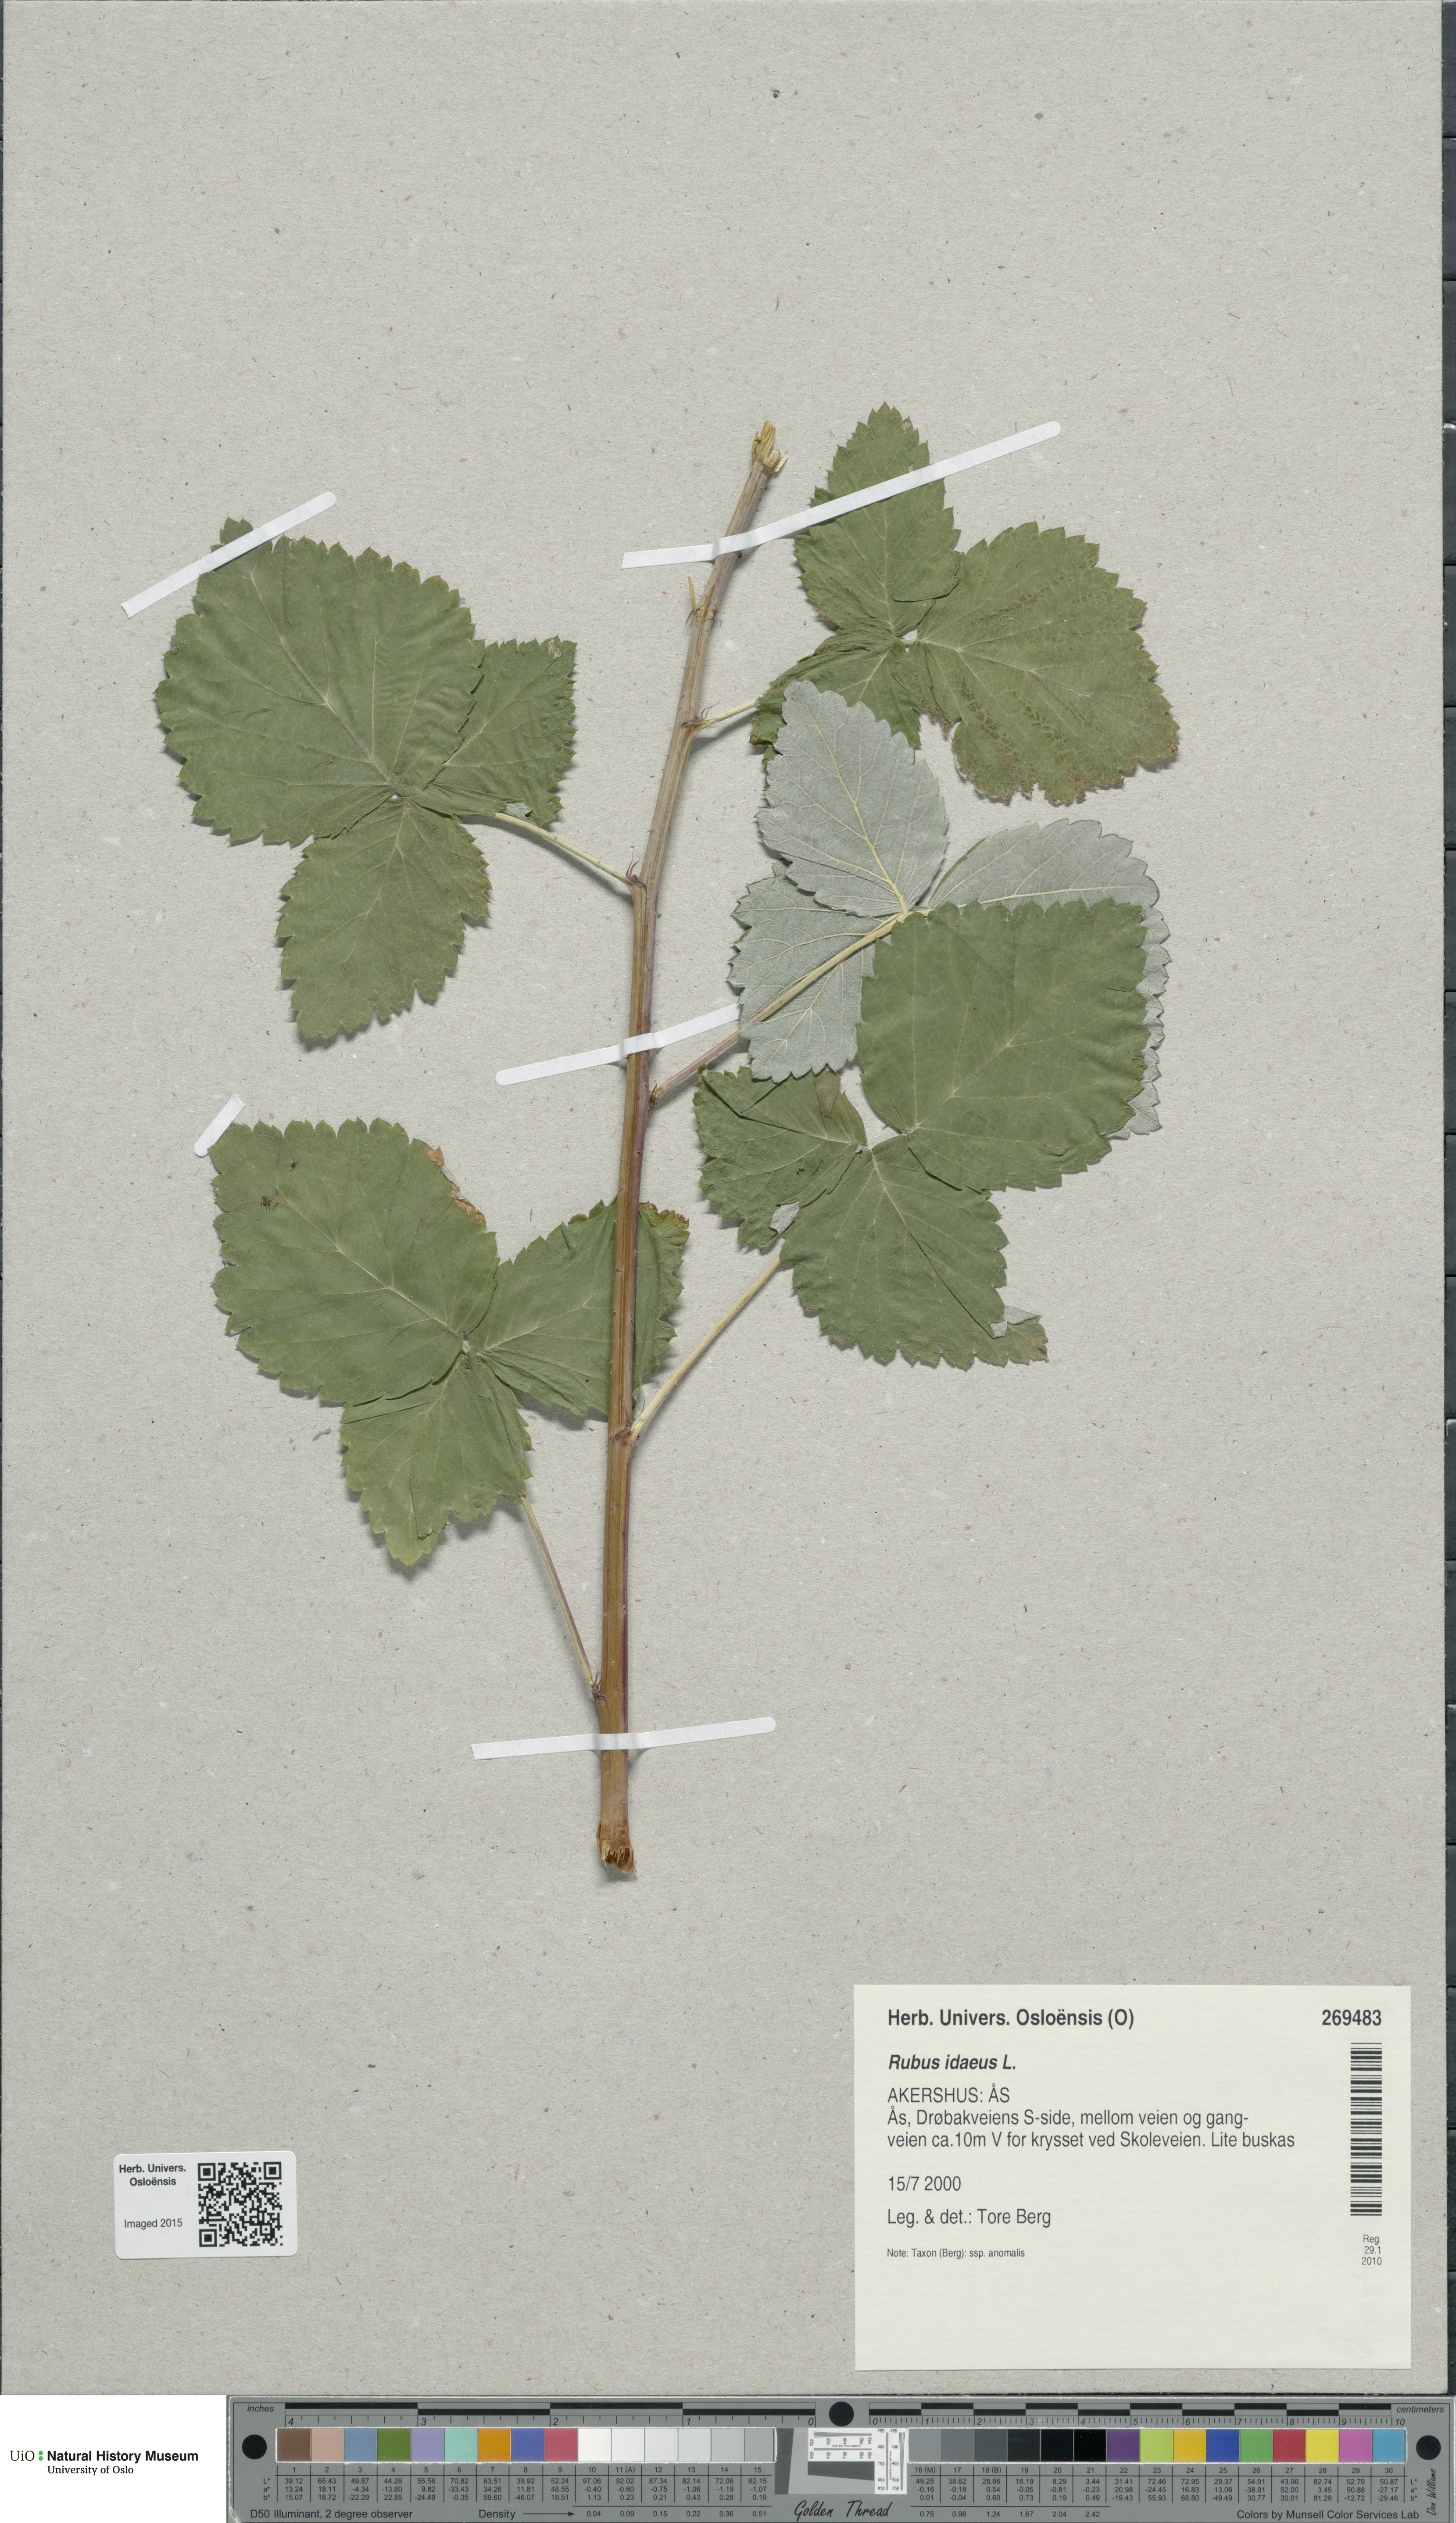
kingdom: Plantae
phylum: Tracheophyta
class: Magnoliopsida
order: Rosales
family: Rosaceae
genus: Rubus
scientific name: Rubus idaeus
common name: Raspberry
